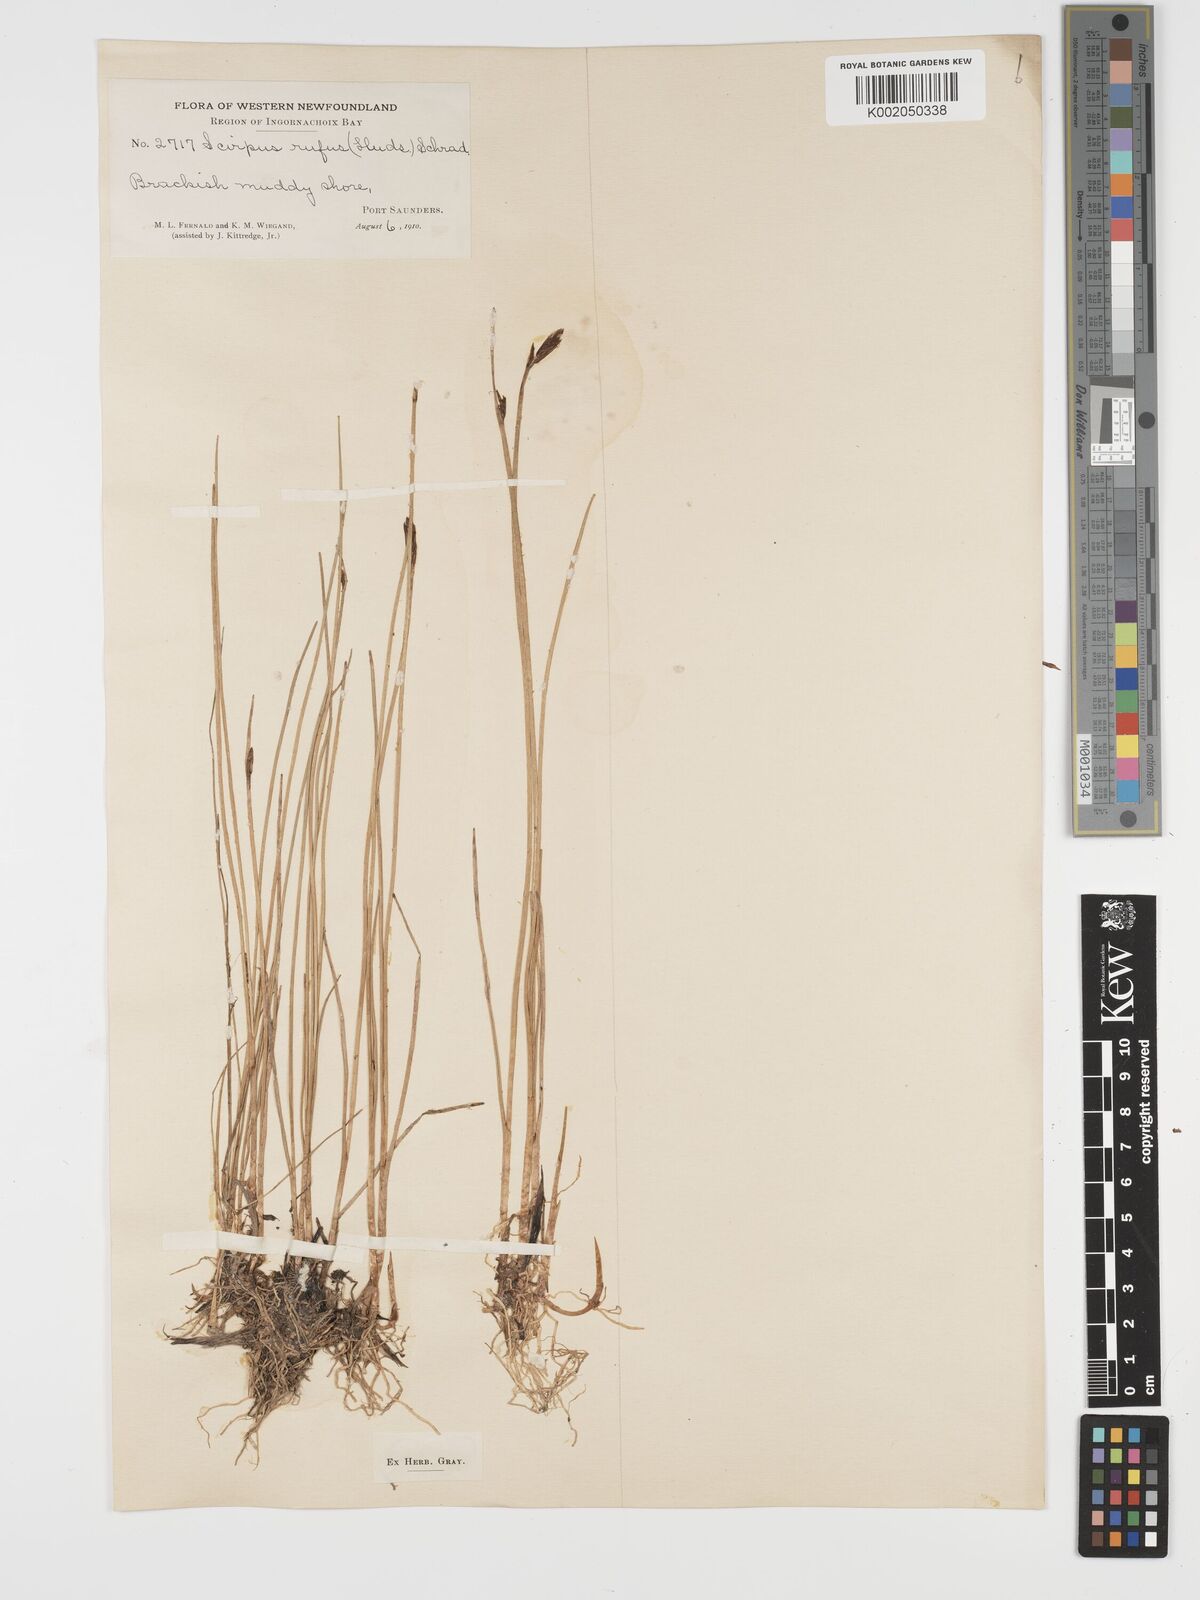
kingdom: Plantae
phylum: Tracheophyta
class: Liliopsida
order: Poales
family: Cyperaceae
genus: Blysmus
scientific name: Blysmus rufus
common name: Saltmarsh flat-sedge
